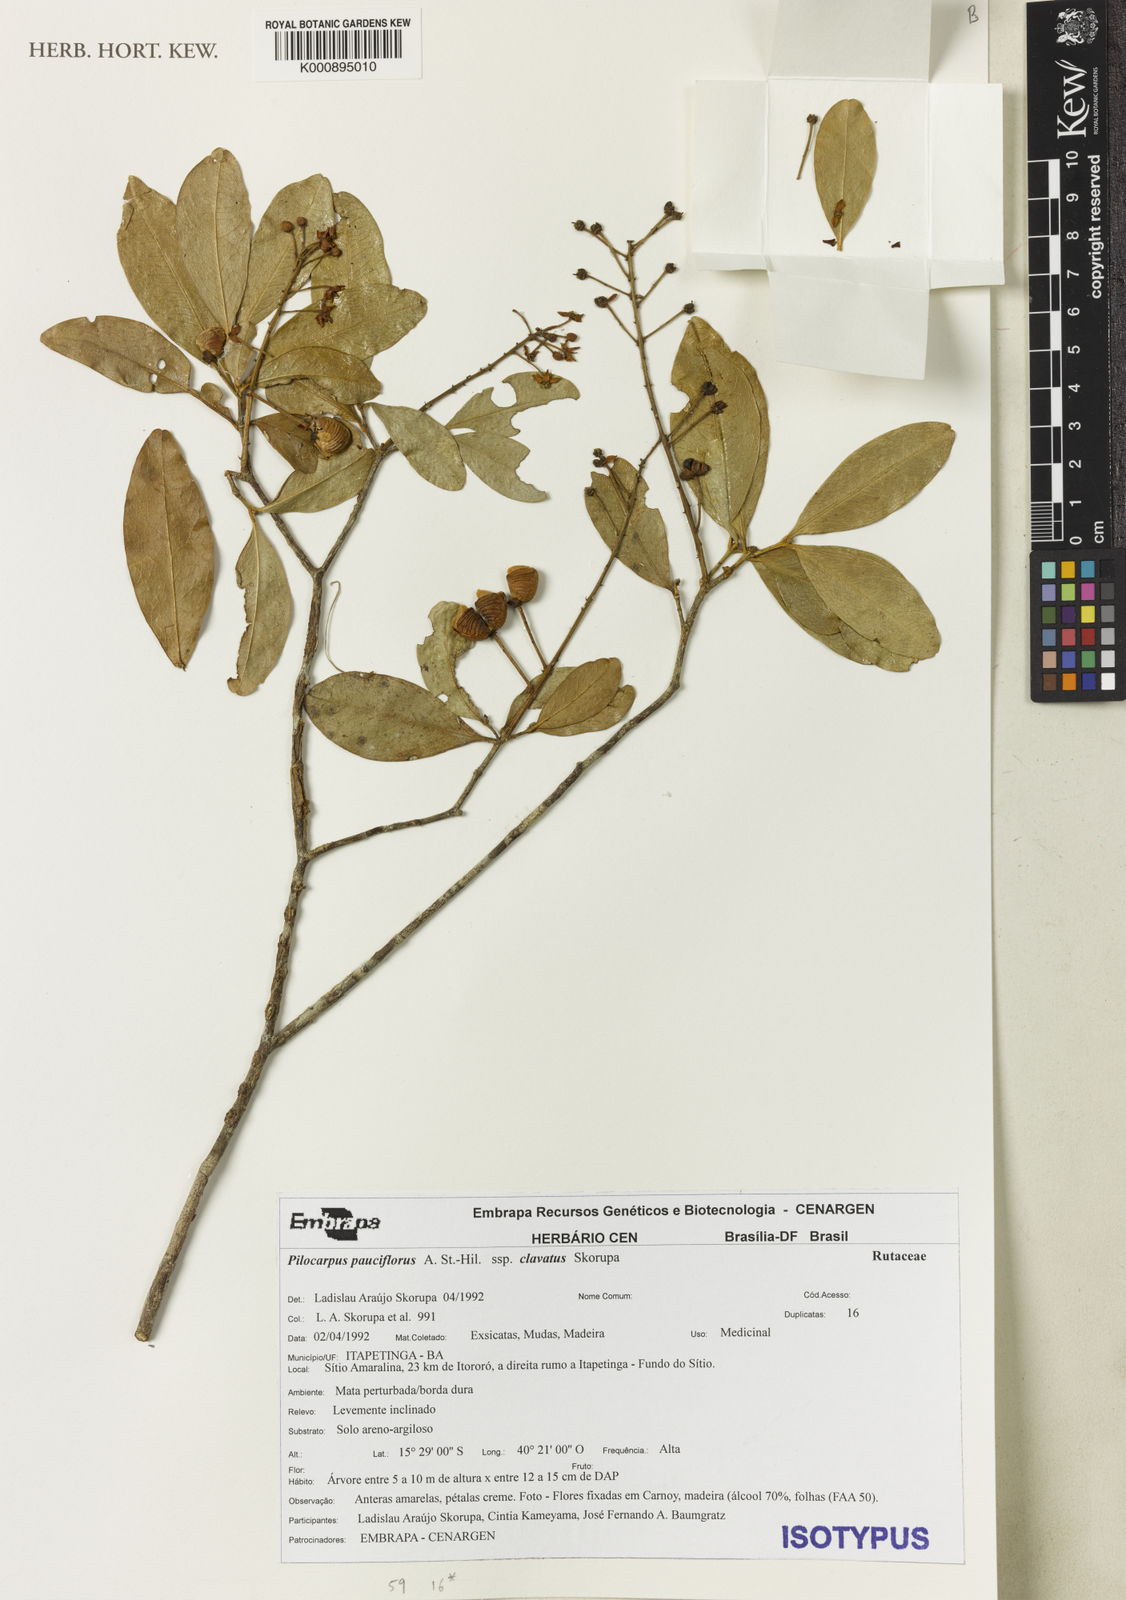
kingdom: Plantae
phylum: Tracheophyta
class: Magnoliopsida
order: Sapindales
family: Rutaceae
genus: Pilocarpus
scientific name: Pilocarpus pauciflorus
